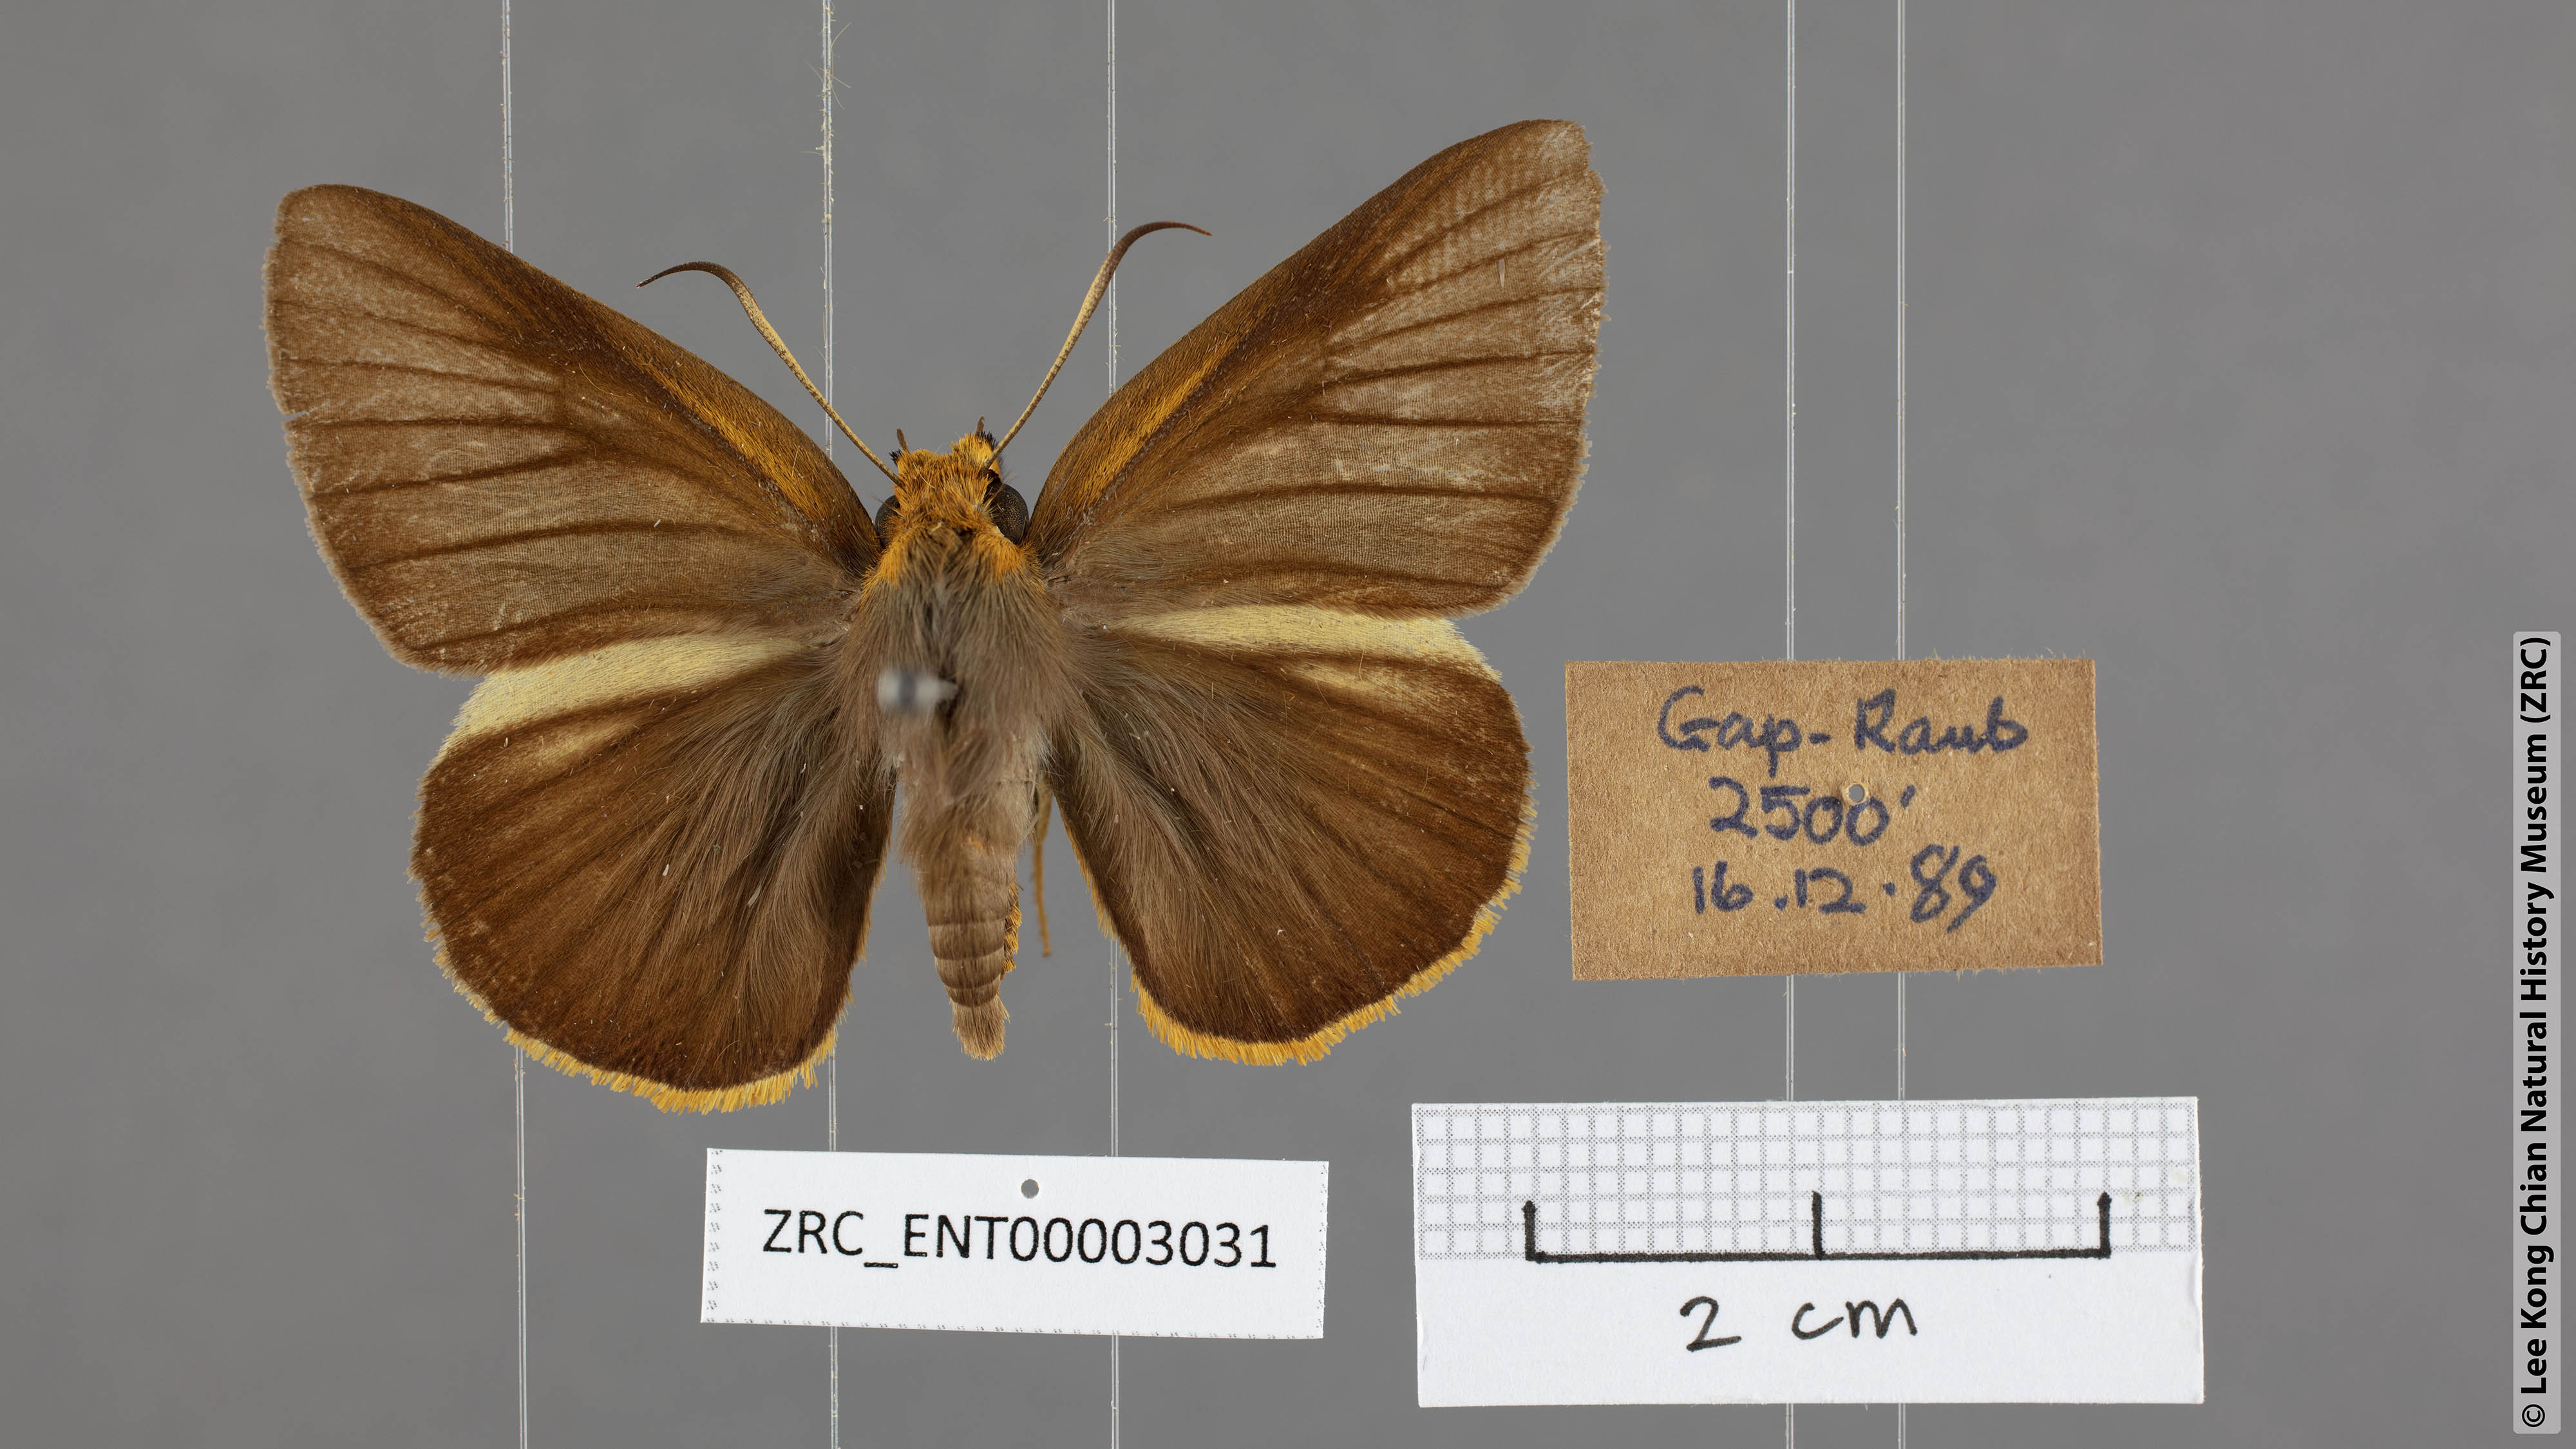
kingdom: Animalia
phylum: Arthropoda
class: Insecta
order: Lepidoptera
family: Hesperiidae
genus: Bibasis
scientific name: Bibasis Burara harisa
